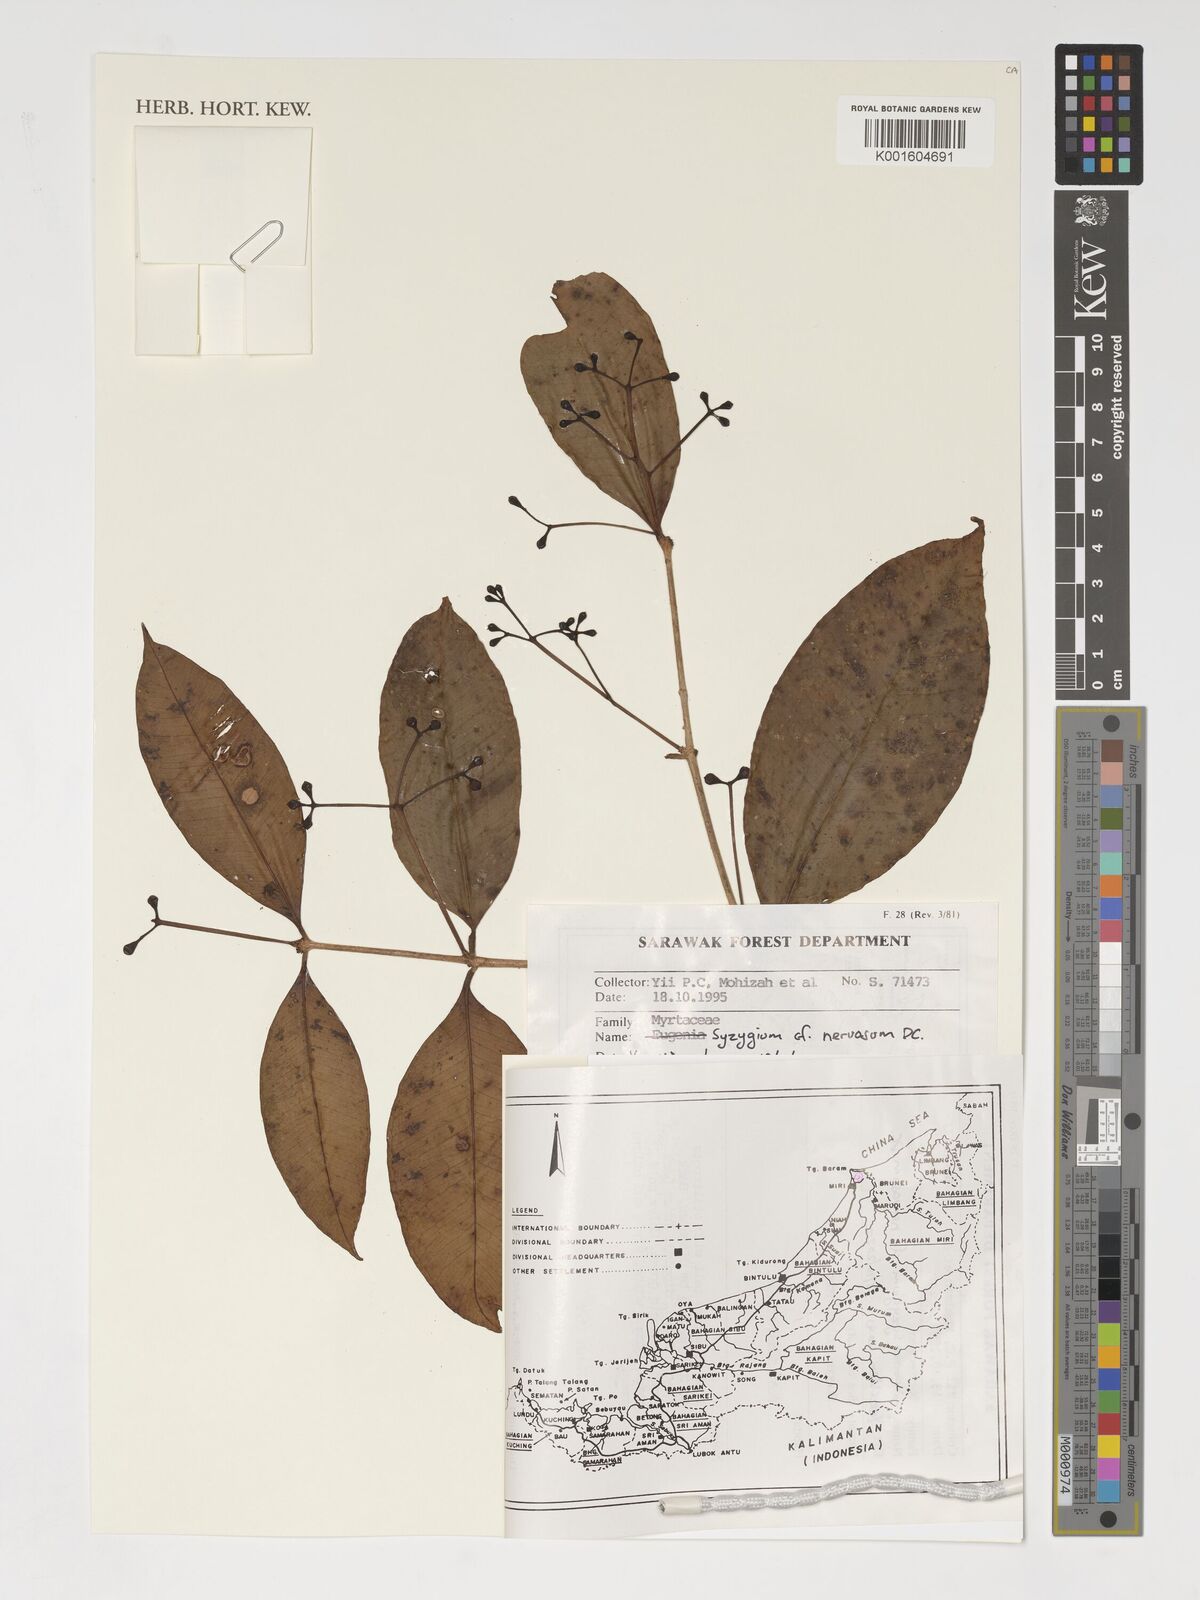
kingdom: Plantae
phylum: Tracheophyta
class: Magnoliopsida
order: Myrtales
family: Myrtaceae
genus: Syzygium
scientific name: Syzygium nervosum
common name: Daly river satinash
